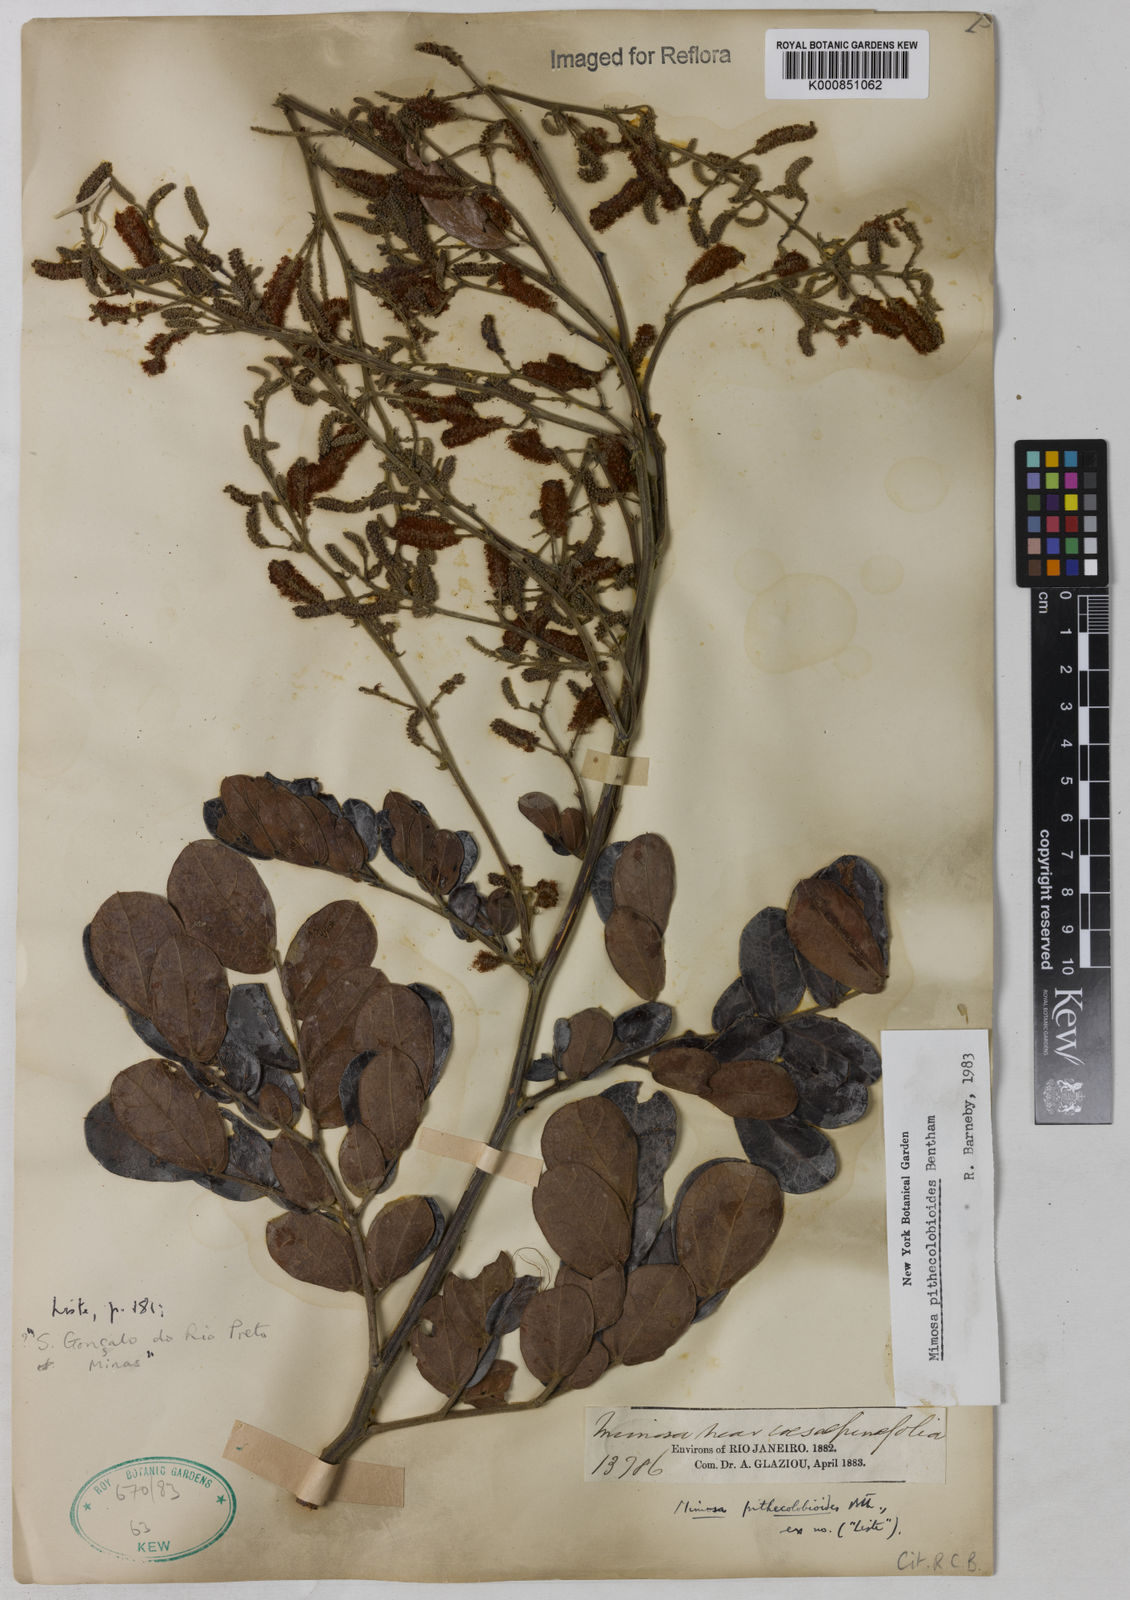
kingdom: Plantae
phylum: Tracheophyta
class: Magnoliopsida
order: Fabales
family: Fabaceae
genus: Mimosa
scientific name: Mimosa pithecolobioides
